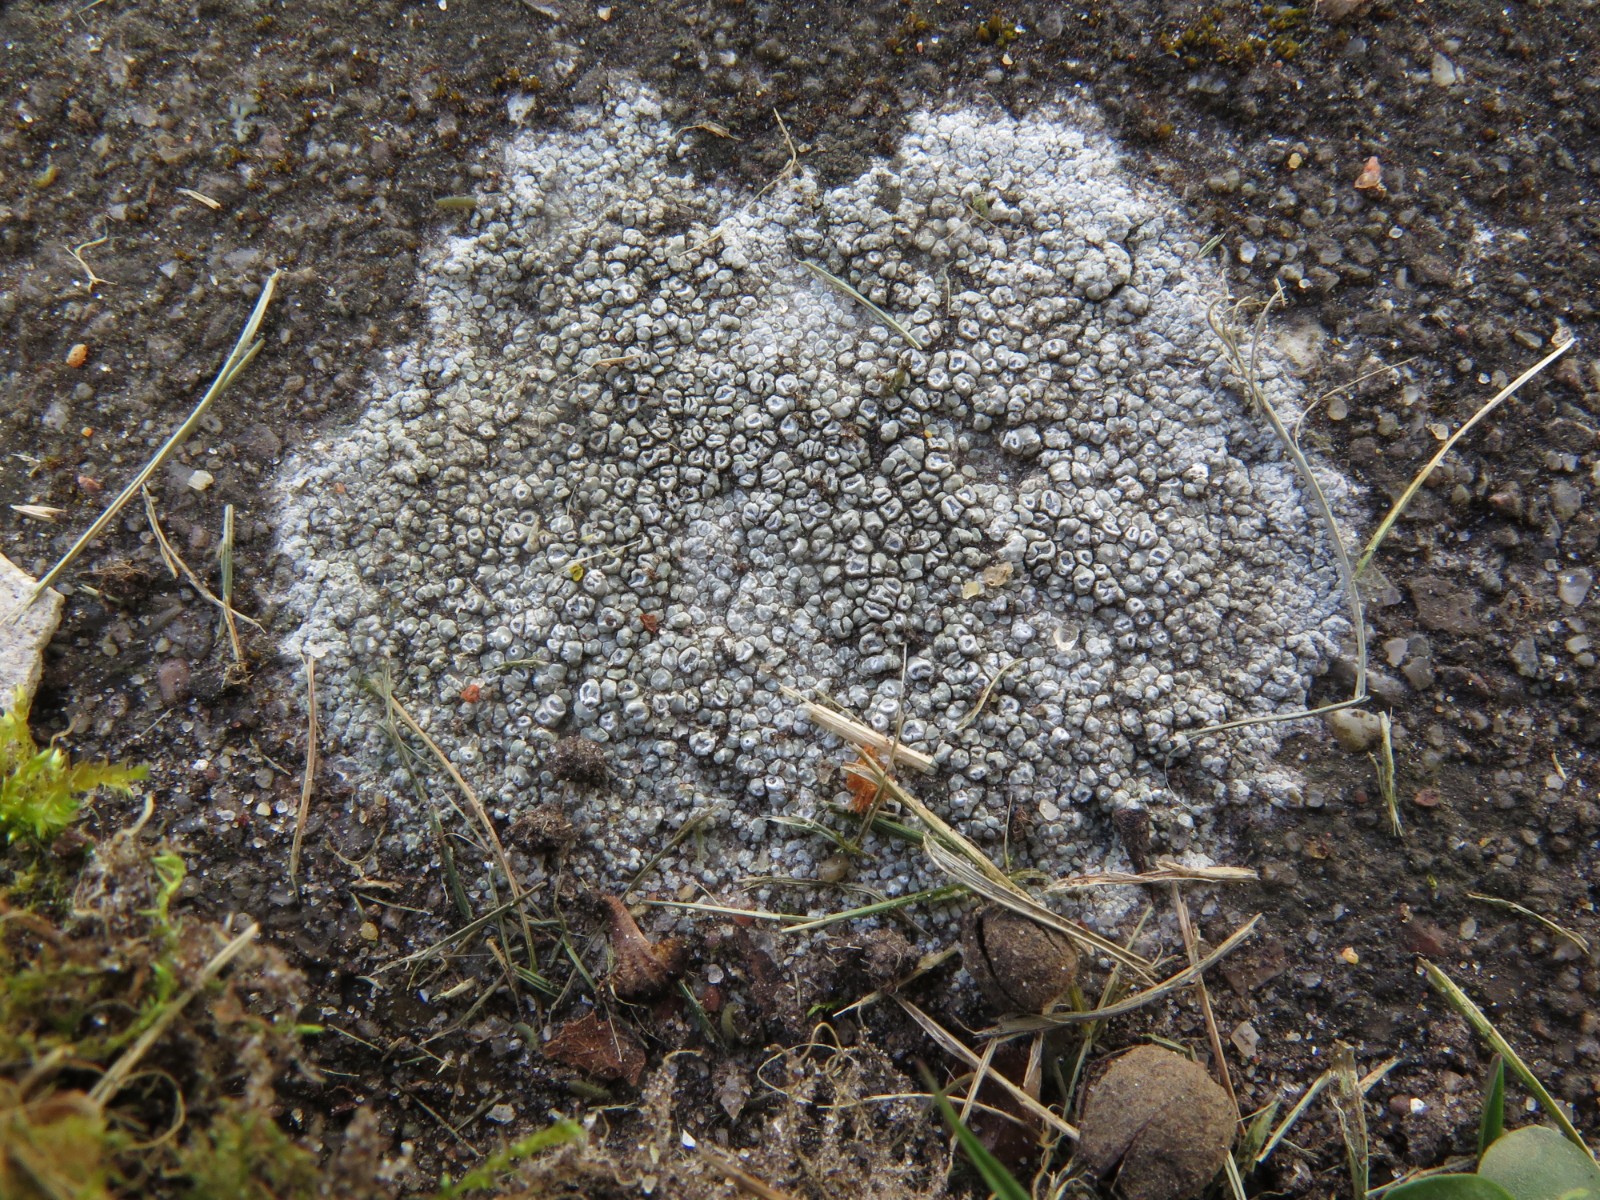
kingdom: Fungi
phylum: Ascomycota
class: Lecanoromycetes
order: Pertusariales
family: Megasporaceae
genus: Circinaria
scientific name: Circinaria contorta
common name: indviklet hulskivelav
